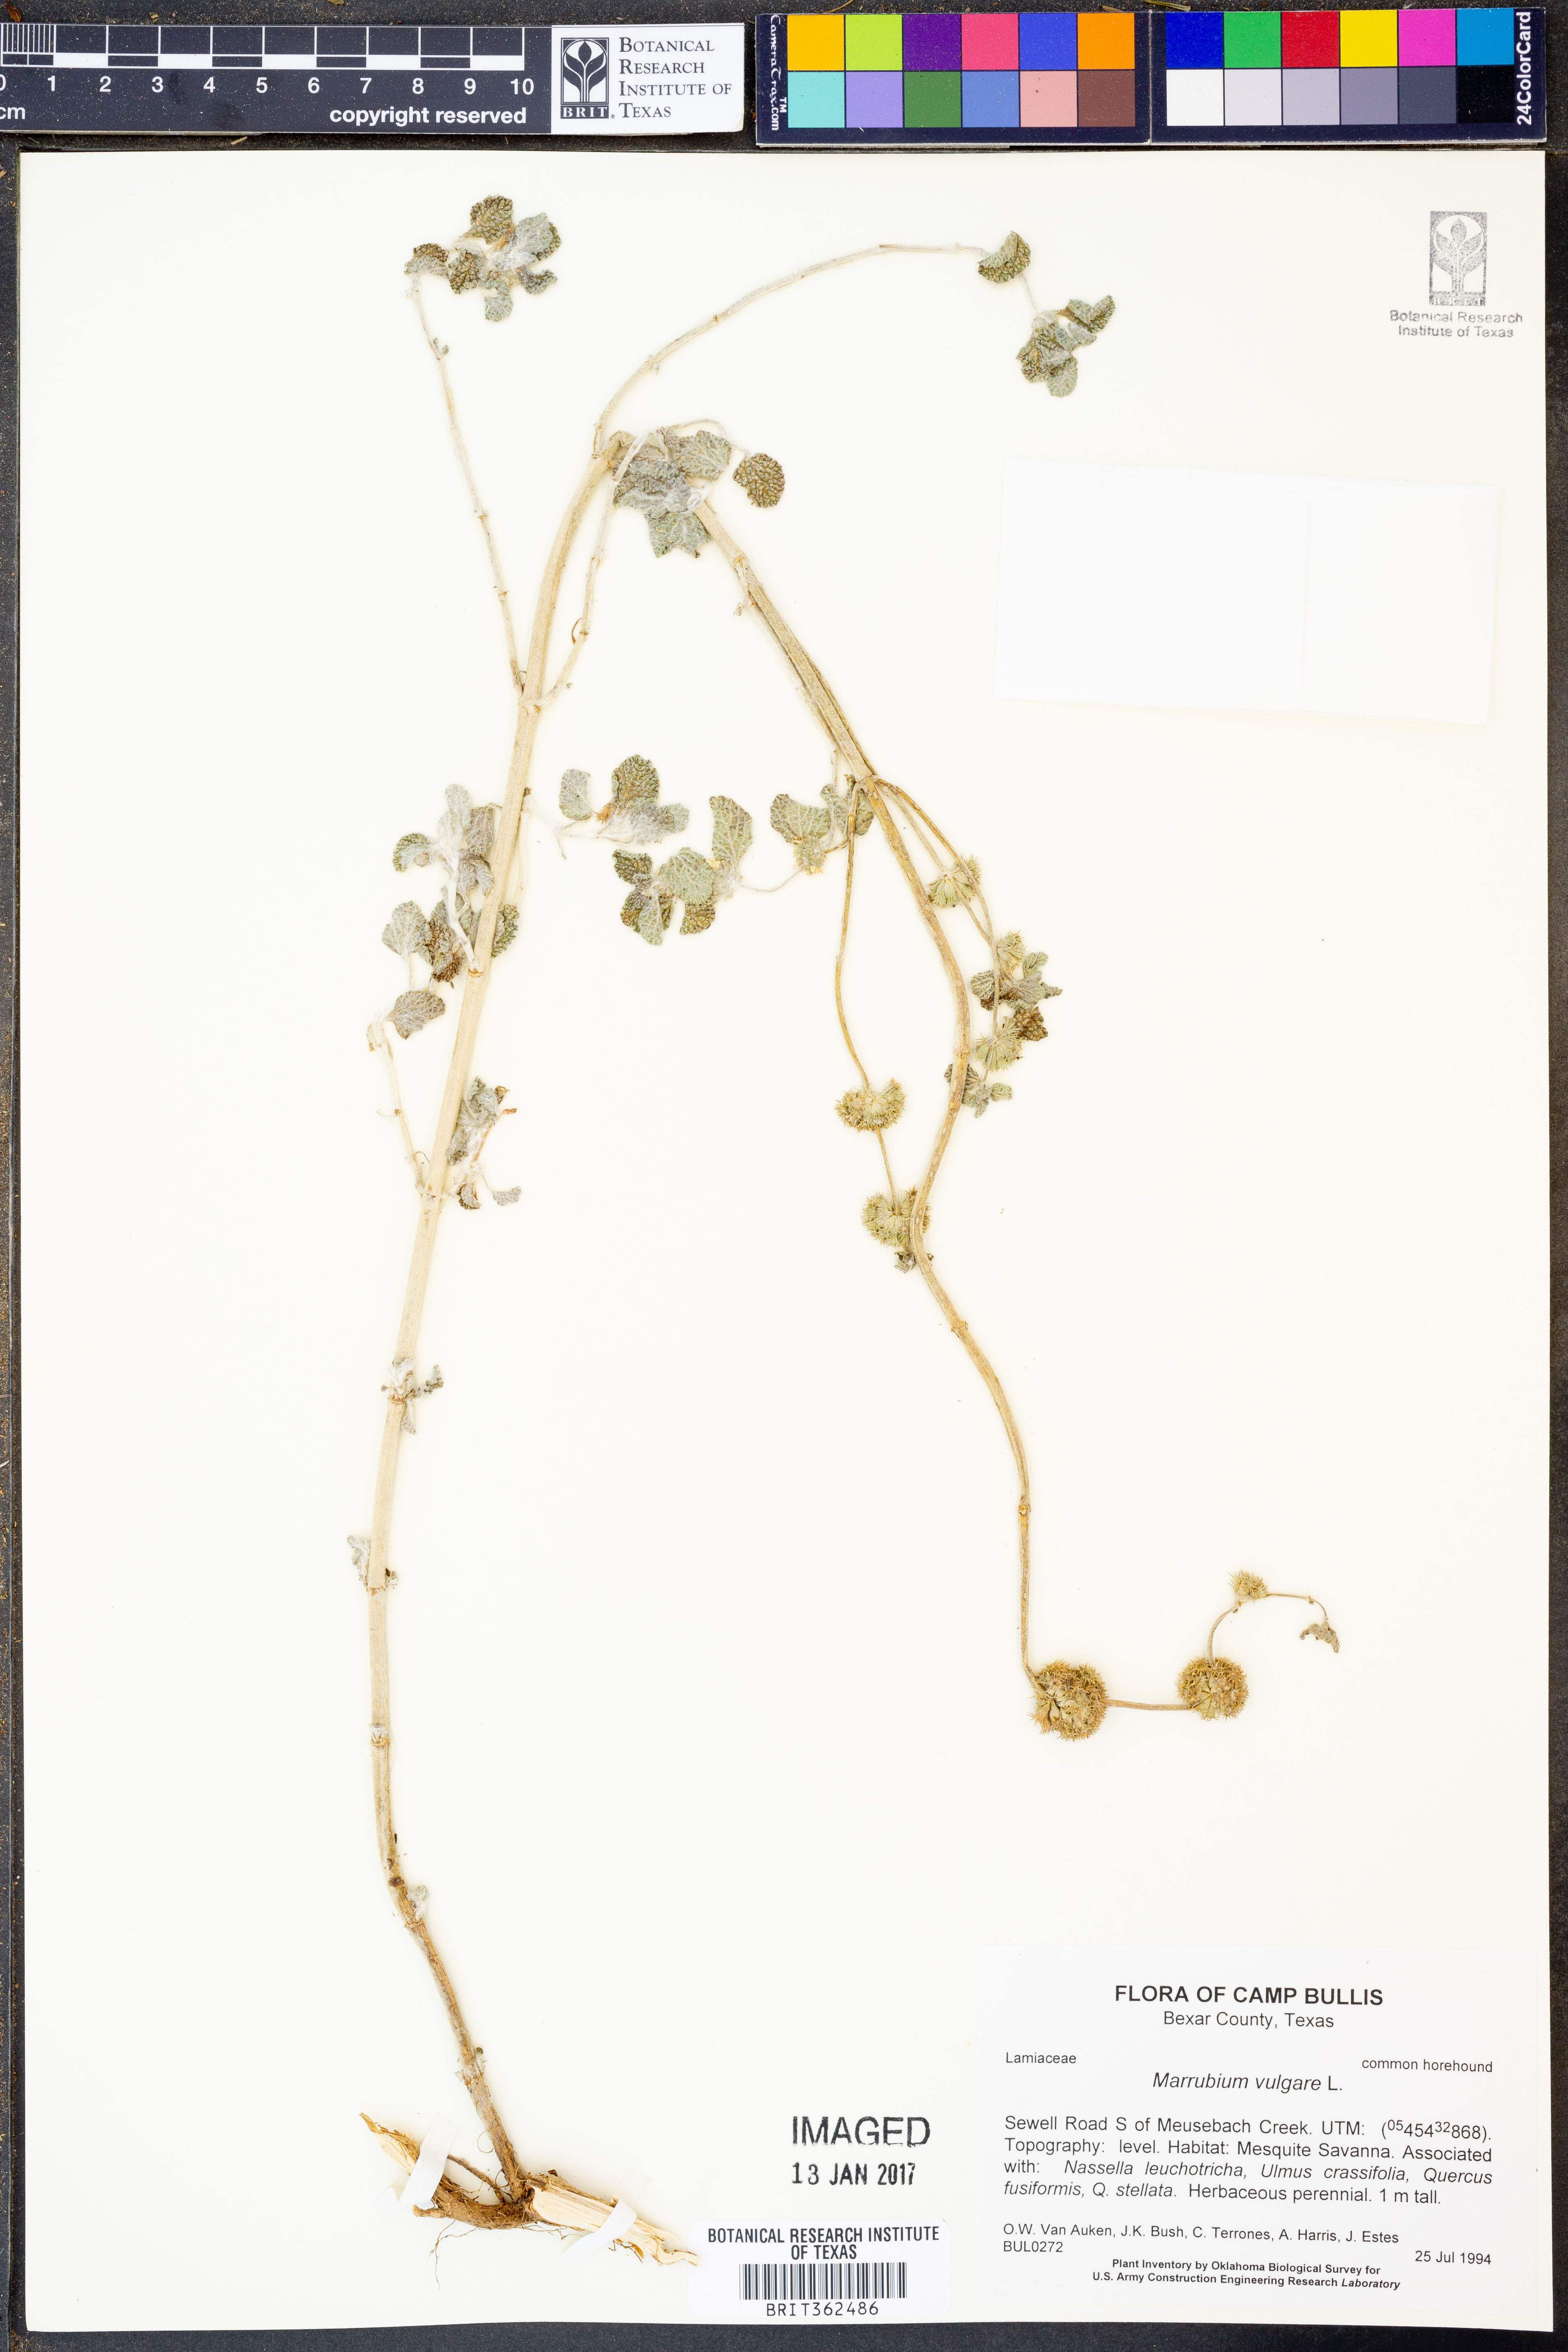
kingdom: Plantae
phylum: Tracheophyta
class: Magnoliopsida
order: Lamiales
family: Lamiaceae
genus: Marrubium
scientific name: Marrubium vulgare
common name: Horehound
